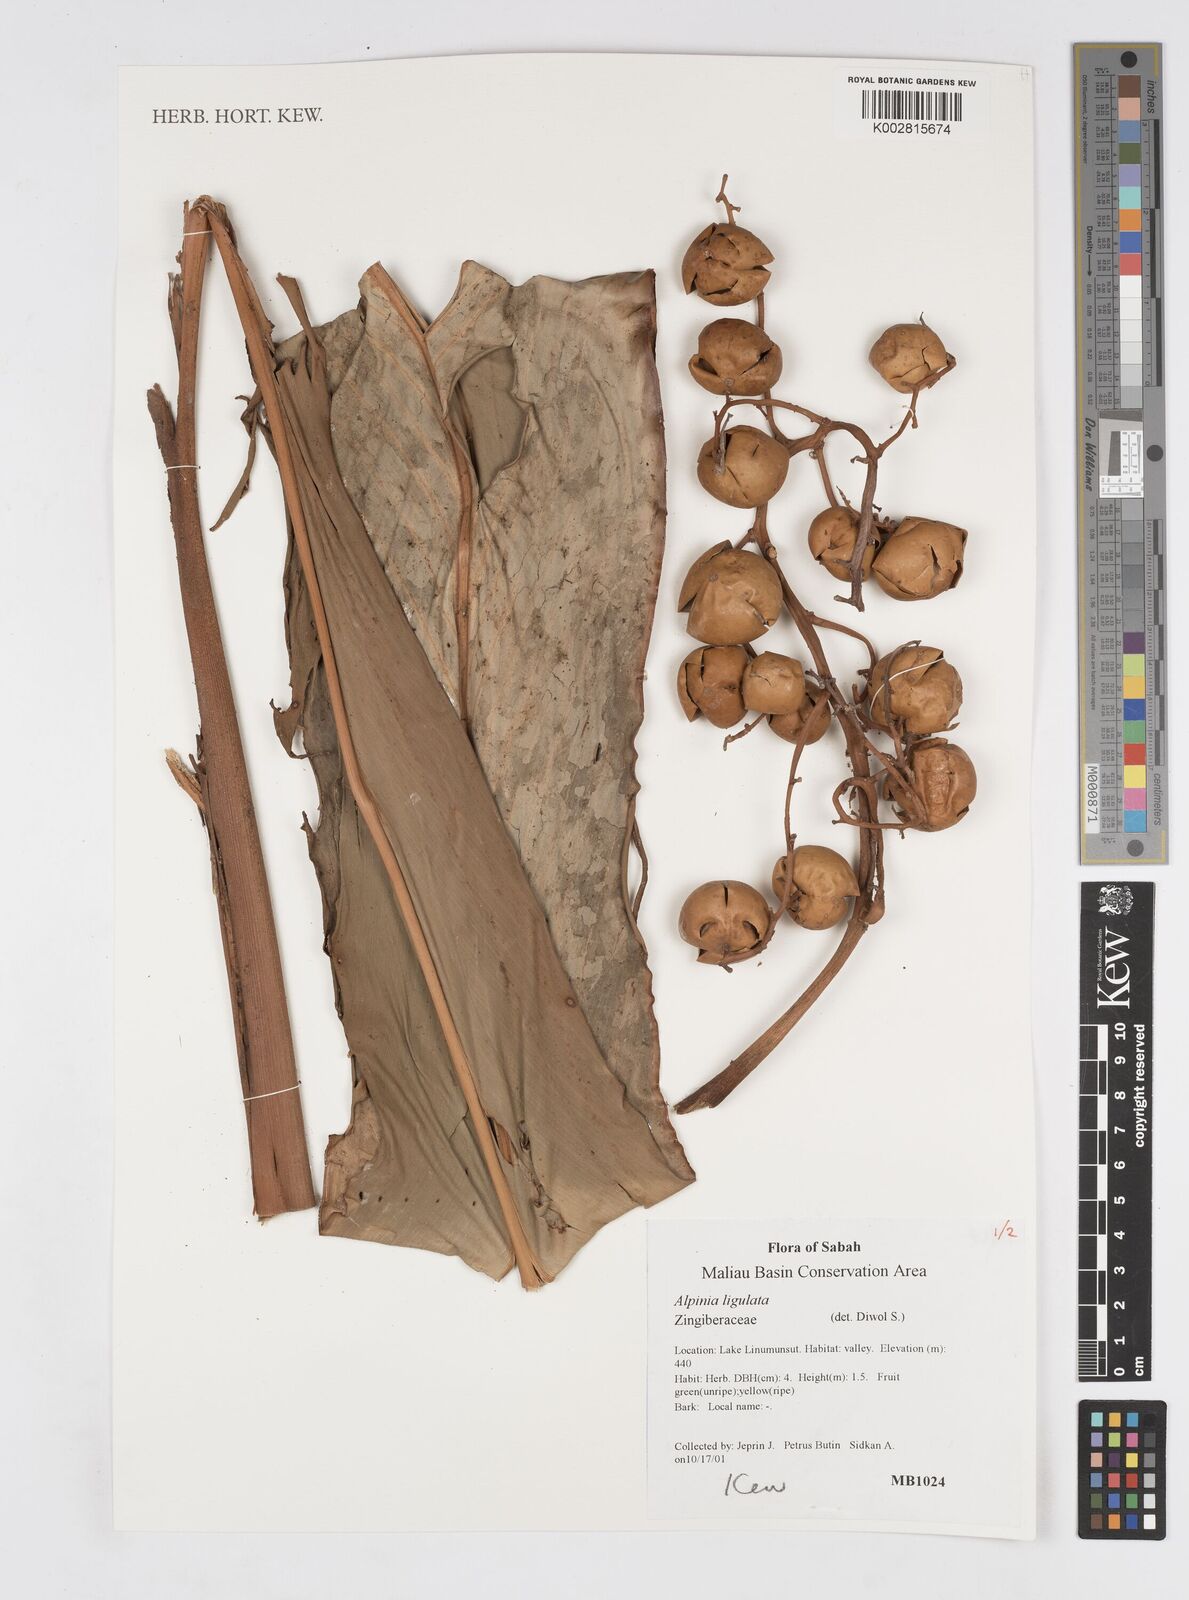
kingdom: Plantae
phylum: Tracheophyta
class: Liliopsida
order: Zingiberales
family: Zingiberaceae
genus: Alpinia
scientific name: Alpinia ligulata
